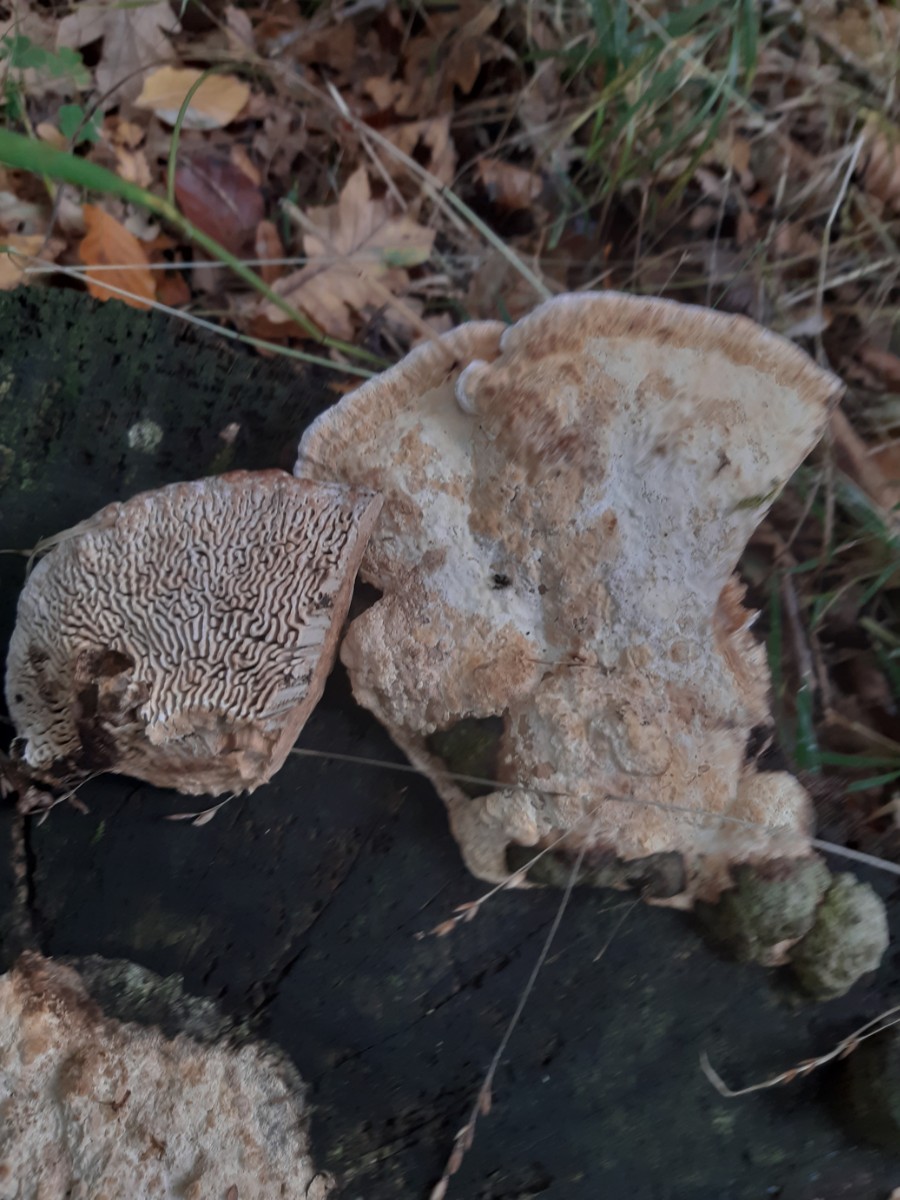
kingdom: Fungi
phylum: Basidiomycota
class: Agaricomycetes
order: Polyporales
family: Fomitopsidaceae
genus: Daedalea
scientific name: Daedalea quercina
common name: ege-labyrintsvamp
